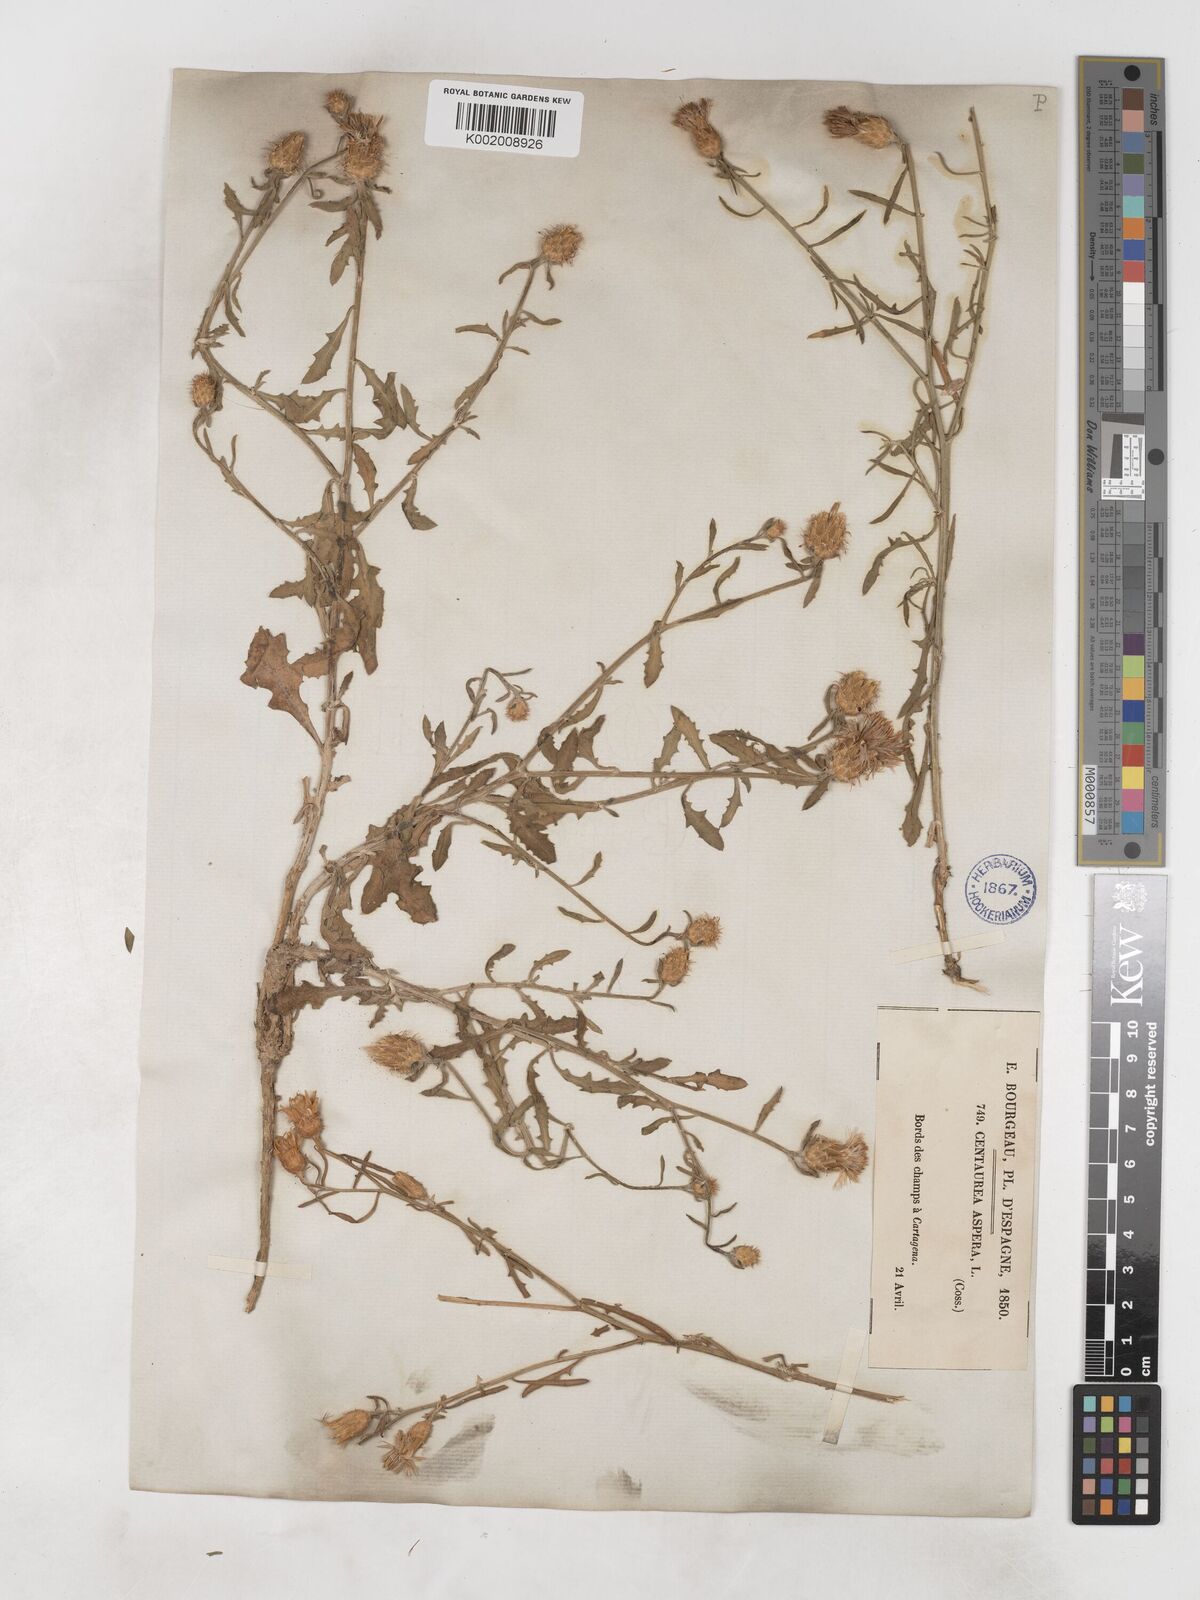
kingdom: Plantae
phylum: Tracheophyta
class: Magnoliopsida
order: Asterales
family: Asteraceae
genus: Centaurea
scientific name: Centaurea aspera
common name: Rough star-thistle
